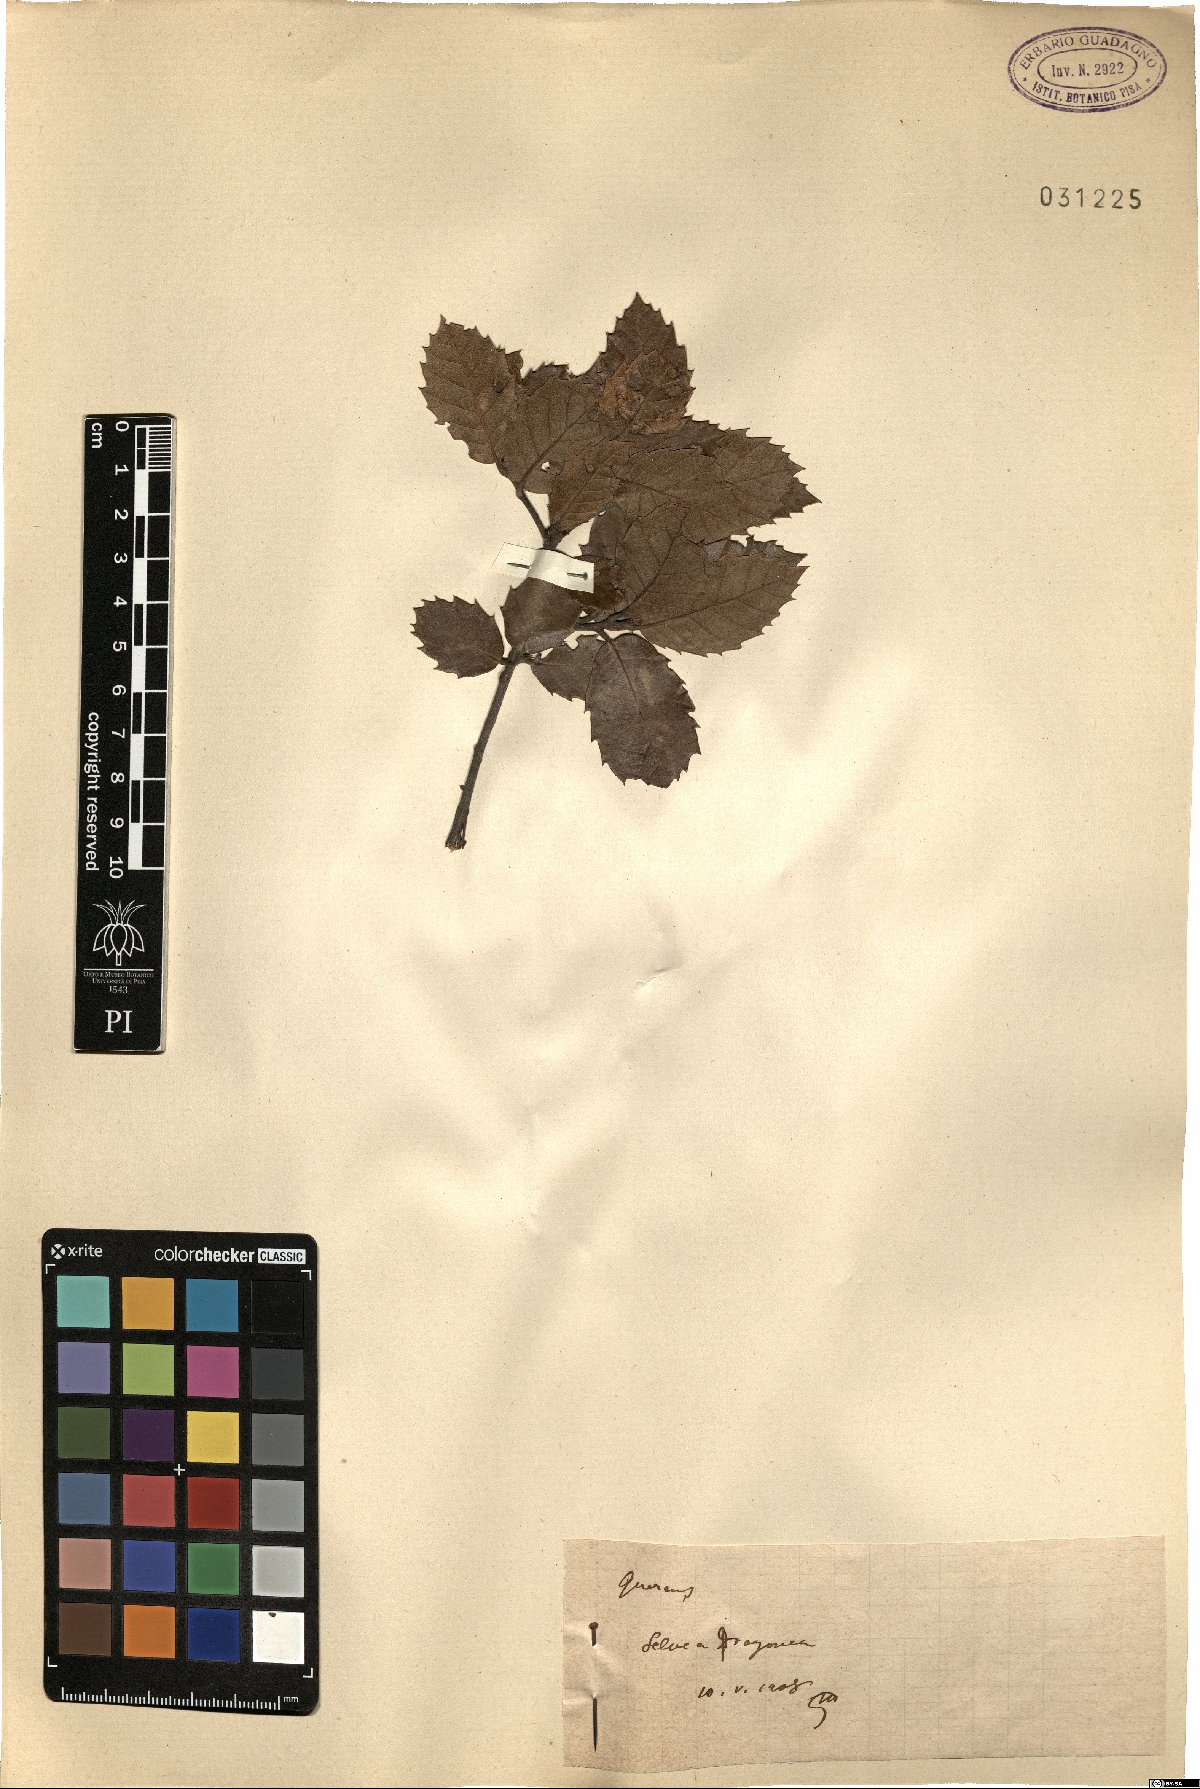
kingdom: Plantae
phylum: Tracheophyta
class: Magnoliopsida
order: Fagales
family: Fagaceae
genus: Quercus
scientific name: Quercus
